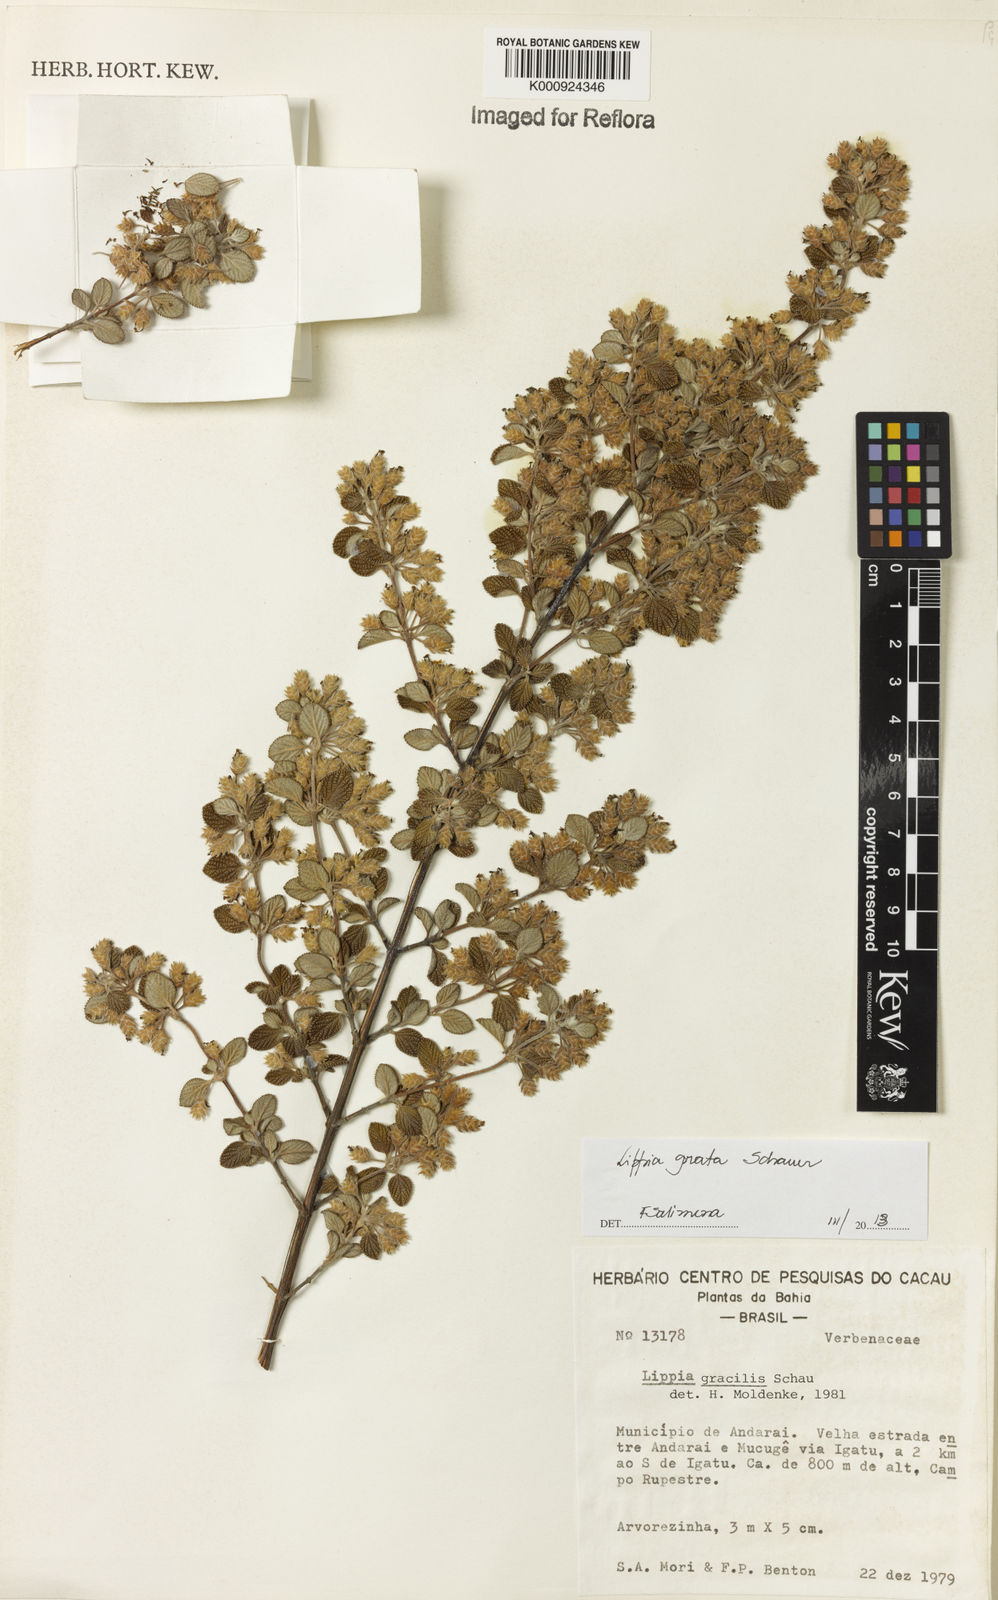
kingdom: Plantae
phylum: Tracheophyta
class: Magnoliopsida
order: Lamiales
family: Verbenaceae
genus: Lippia
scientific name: Lippia grata
